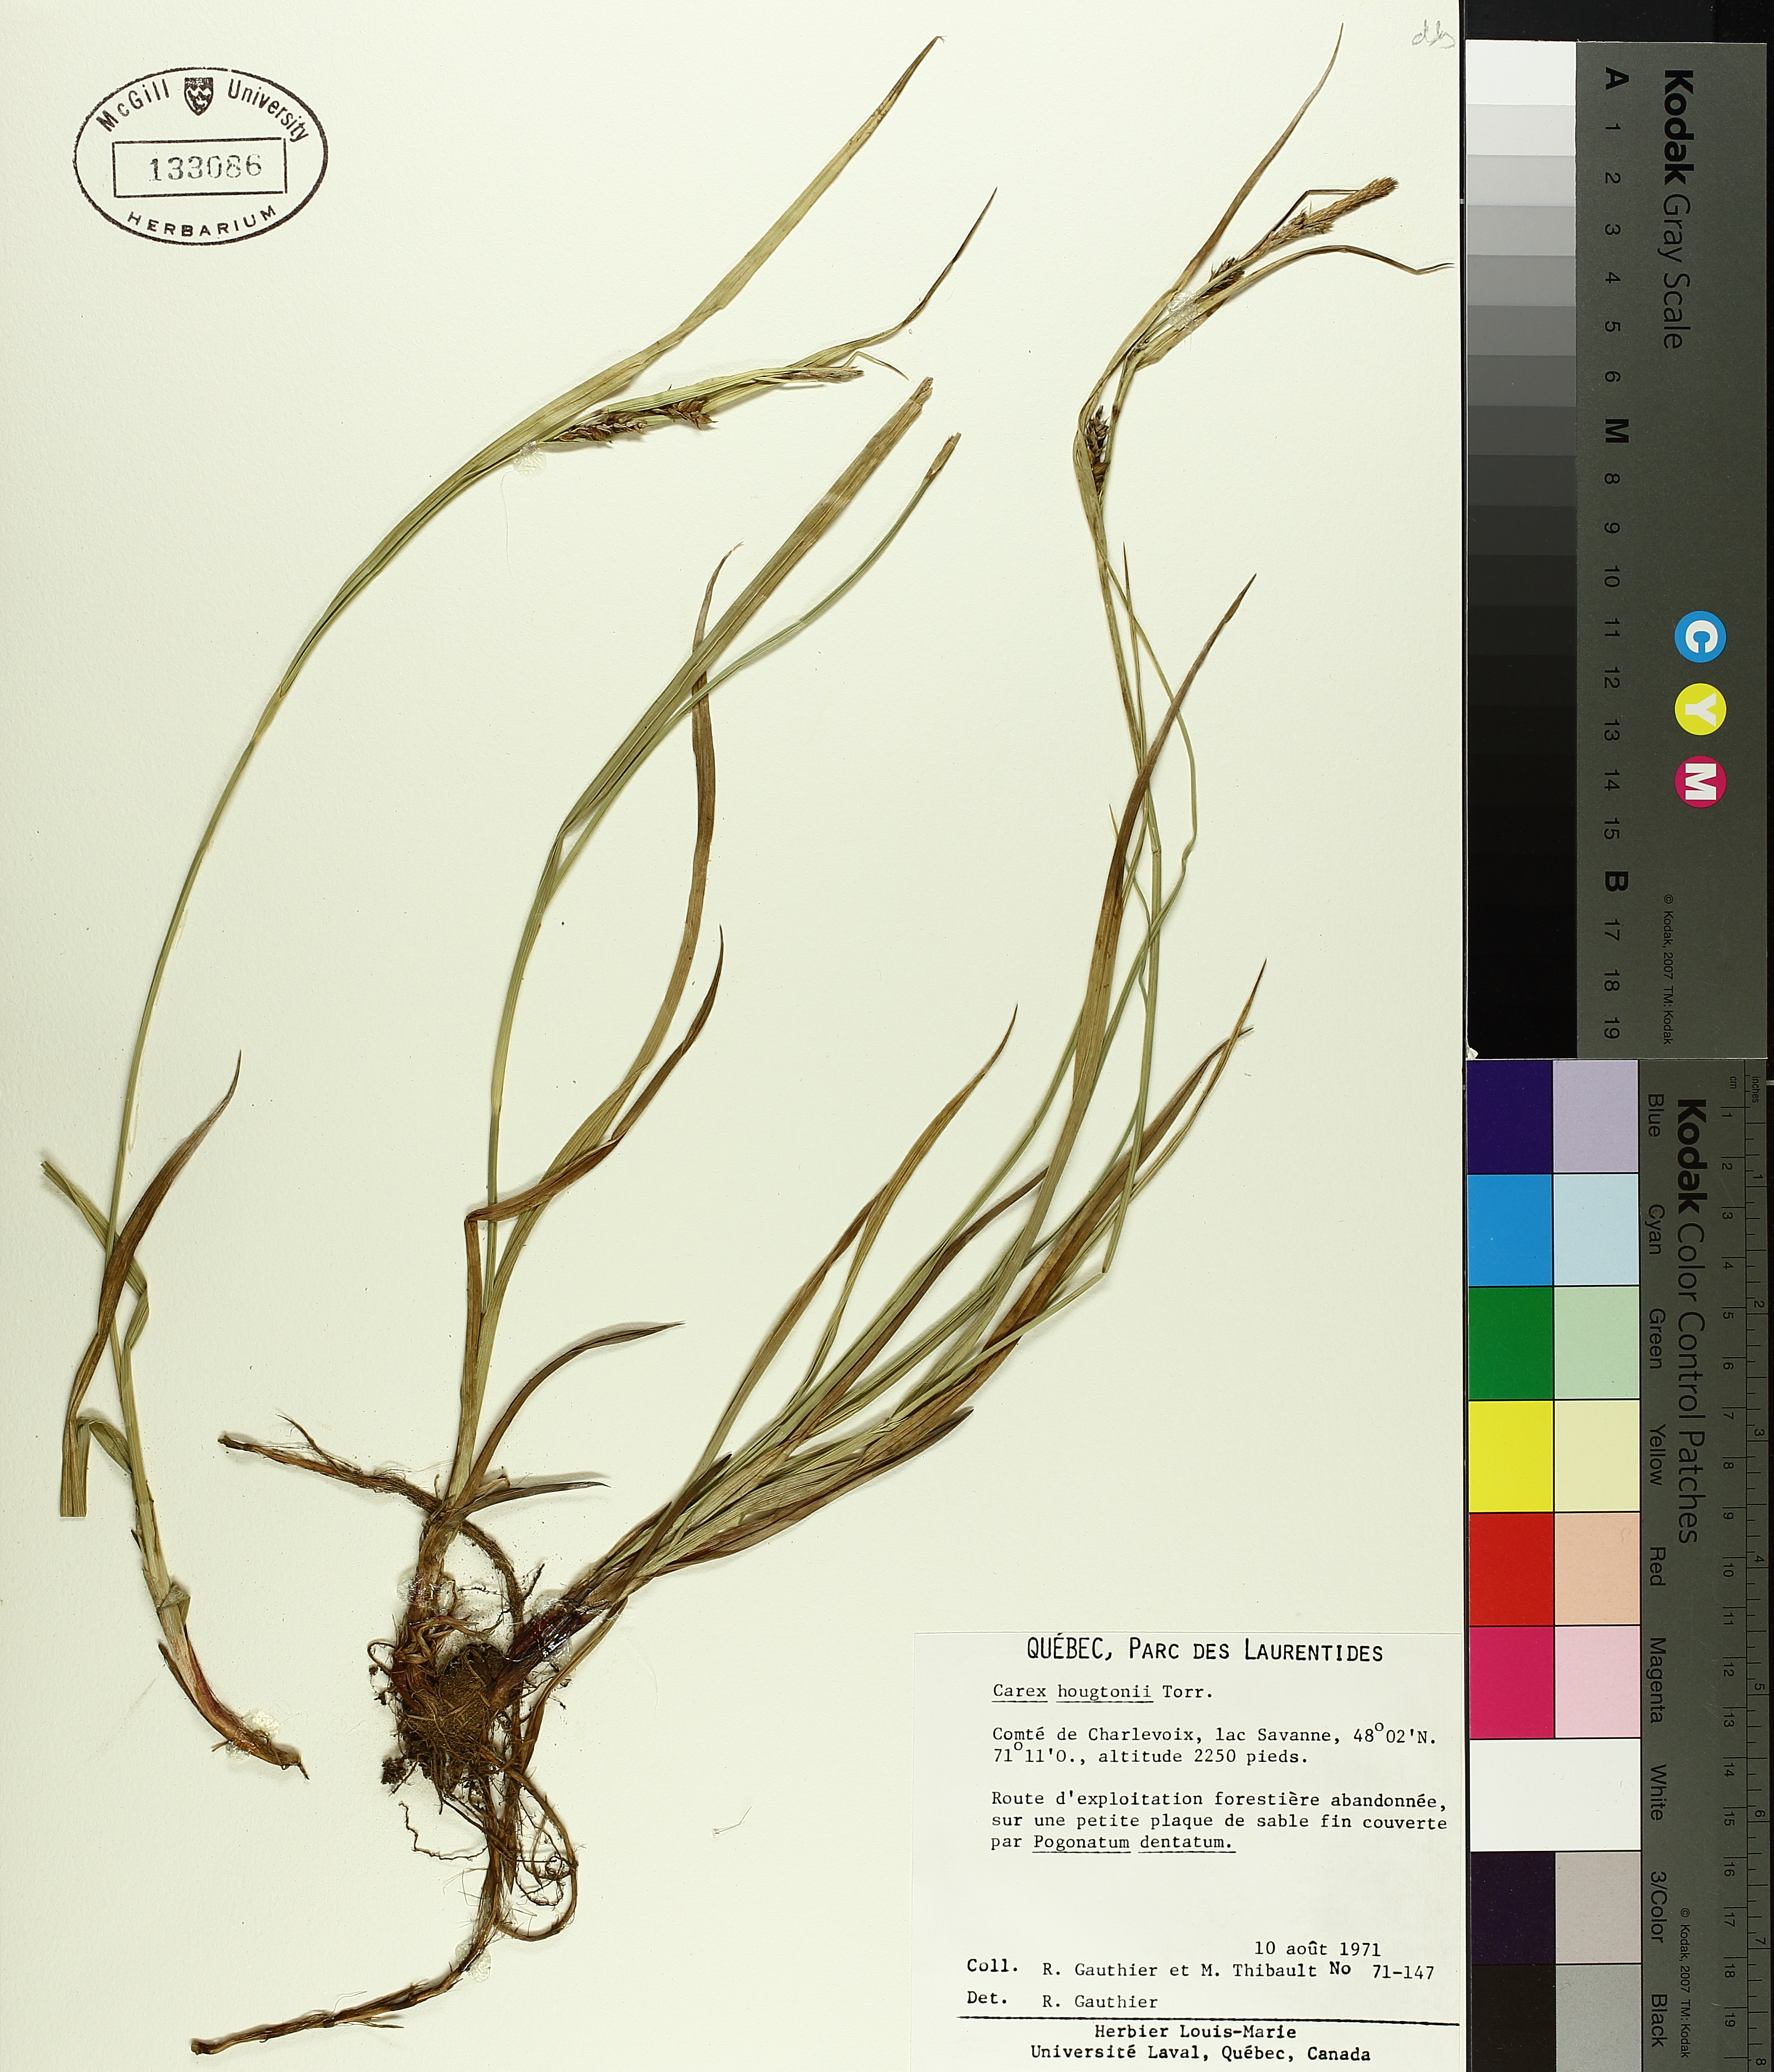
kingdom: Plantae
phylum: Tracheophyta
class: Liliopsida
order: Poales
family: Cyperaceae
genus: Cyperus
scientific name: Cyperus houghtonii
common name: Houghton's cyperus
